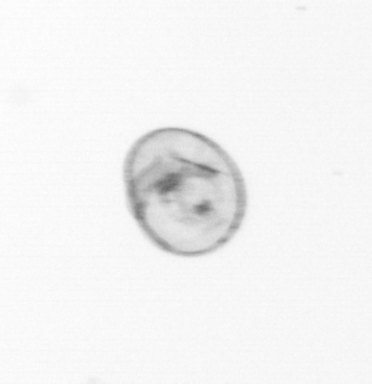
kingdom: Chromista
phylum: Myzozoa
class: Dinophyceae
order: Noctilucales
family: Noctilucaceae
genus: Noctiluca
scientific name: Noctiluca scintillans
